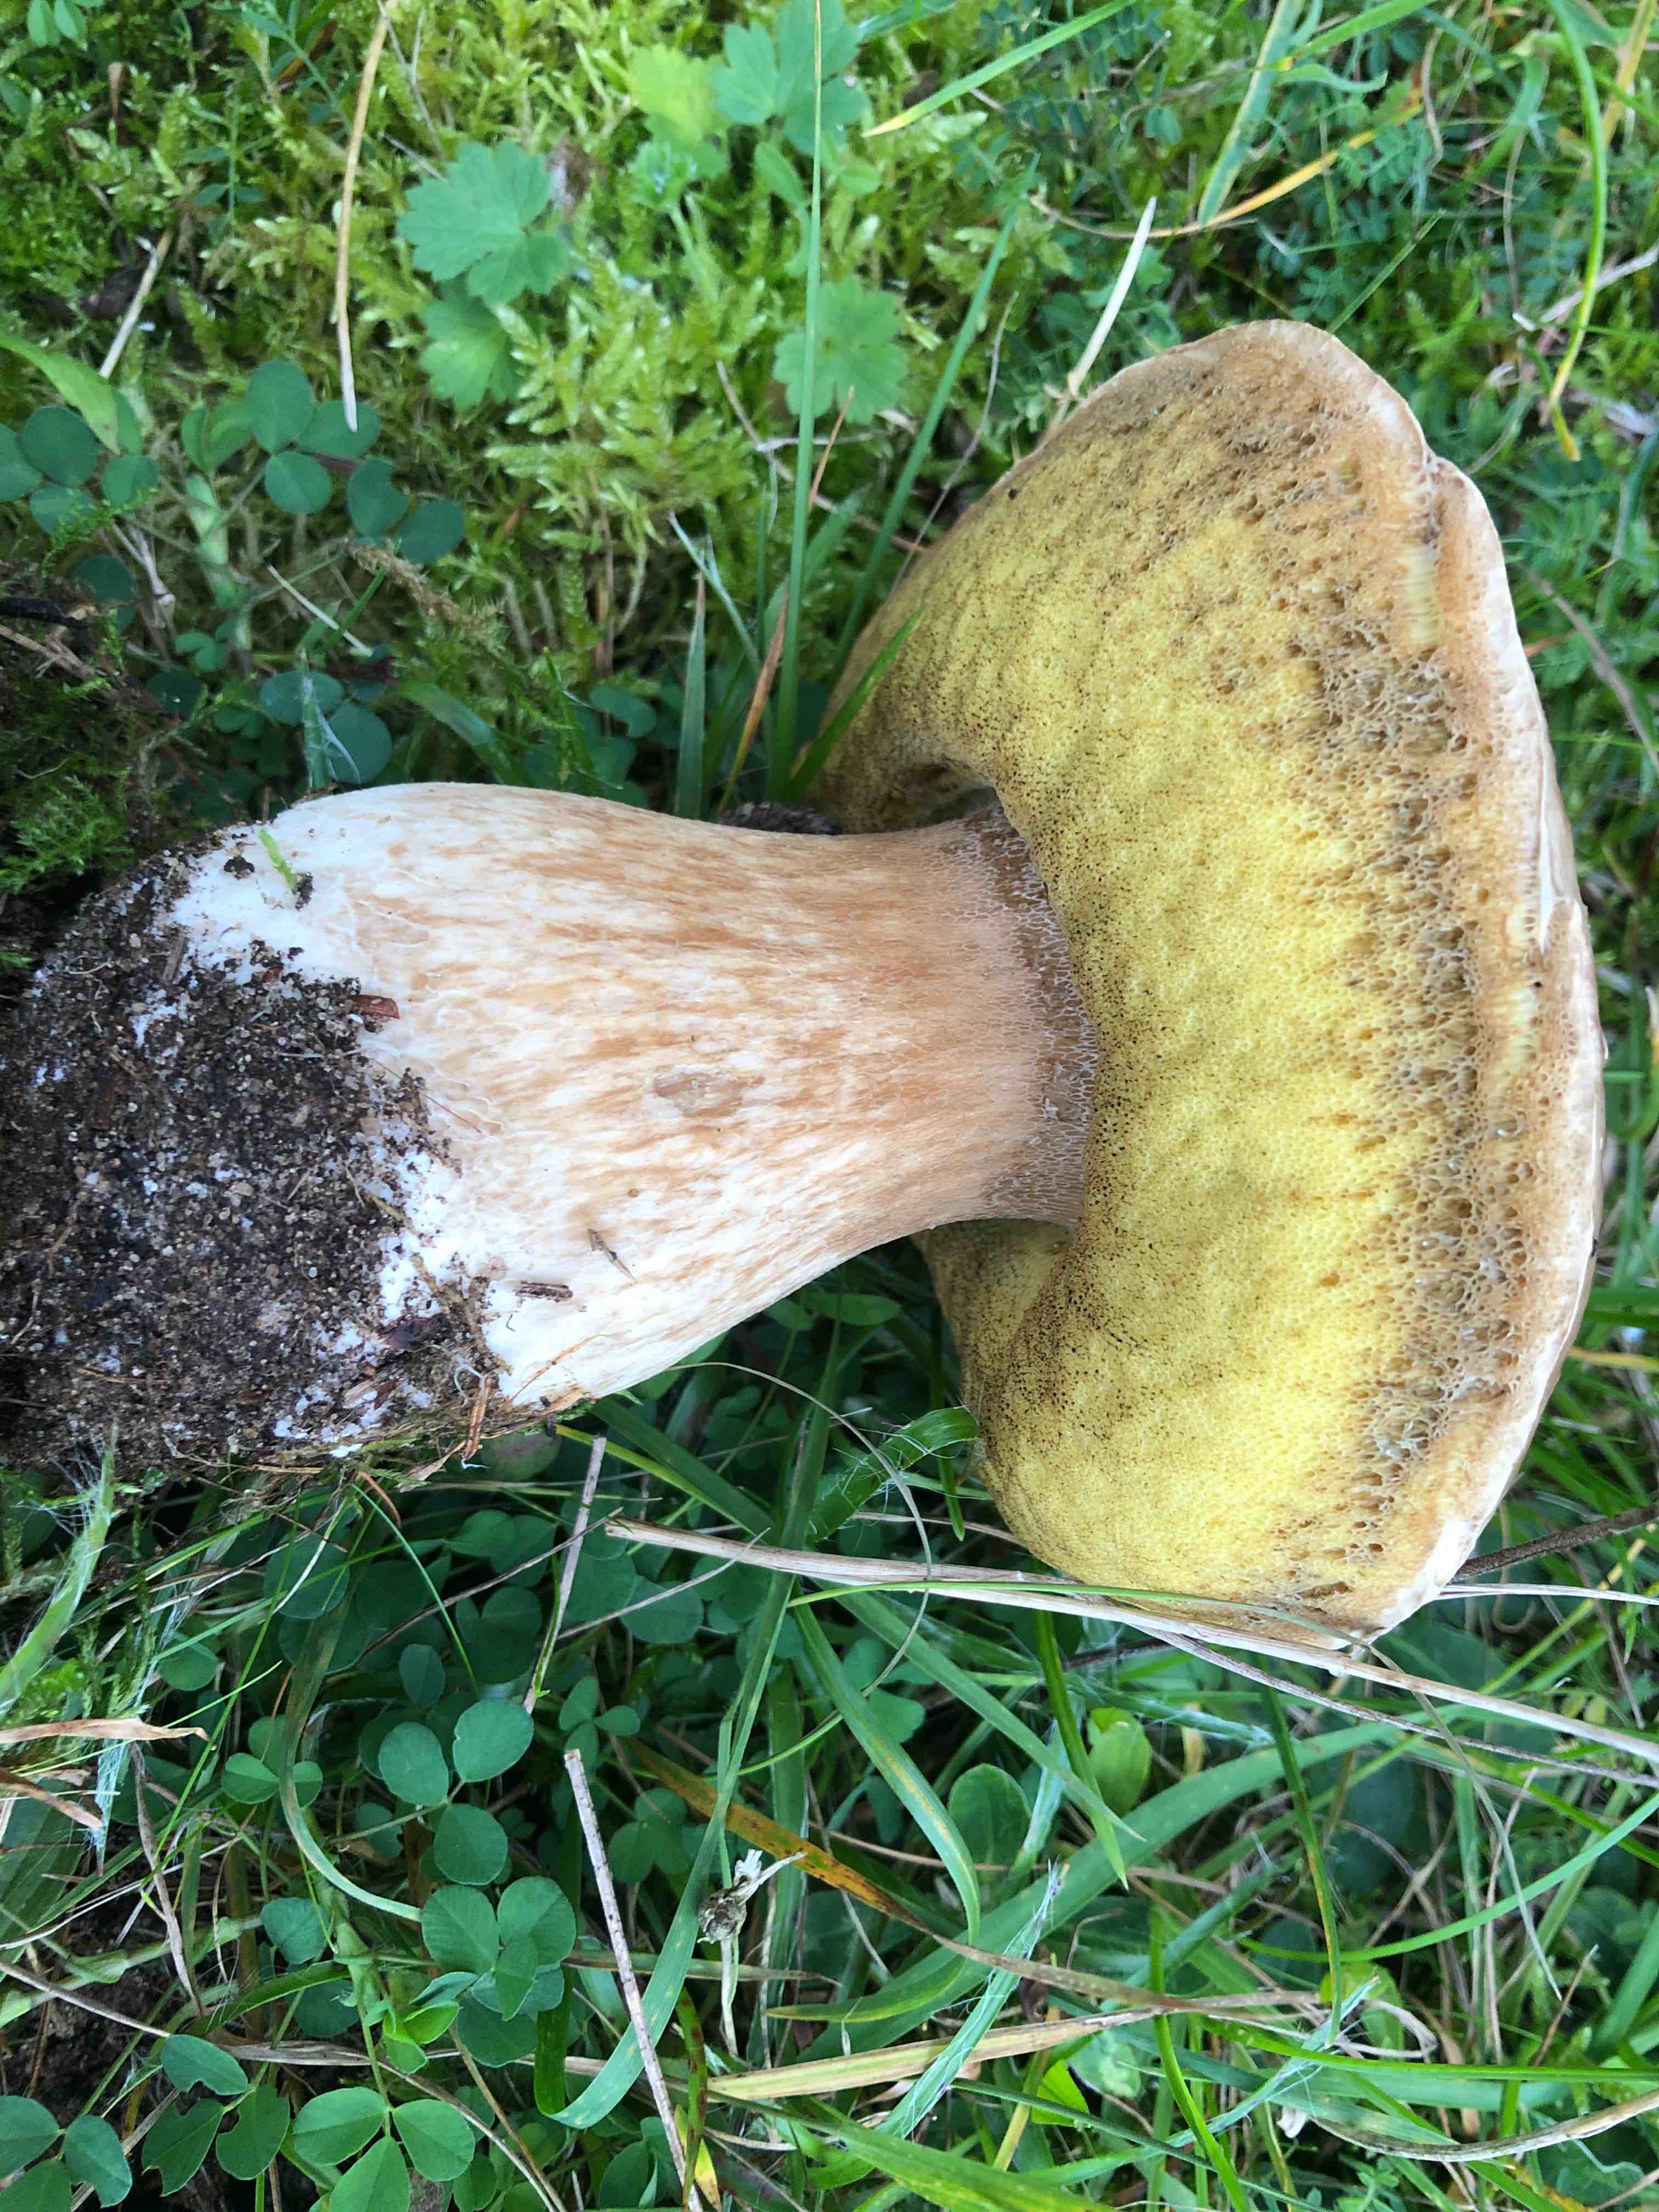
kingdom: Fungi
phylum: Basidiomycota
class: Agaricomycetes
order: Boletales
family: Boletaceae
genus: Boletus
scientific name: Boletus edulis
